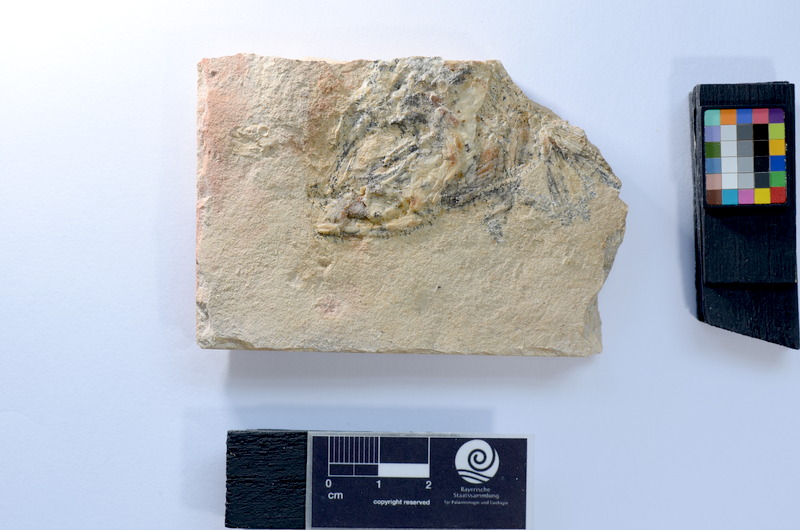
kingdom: Animalia
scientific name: Animalia
